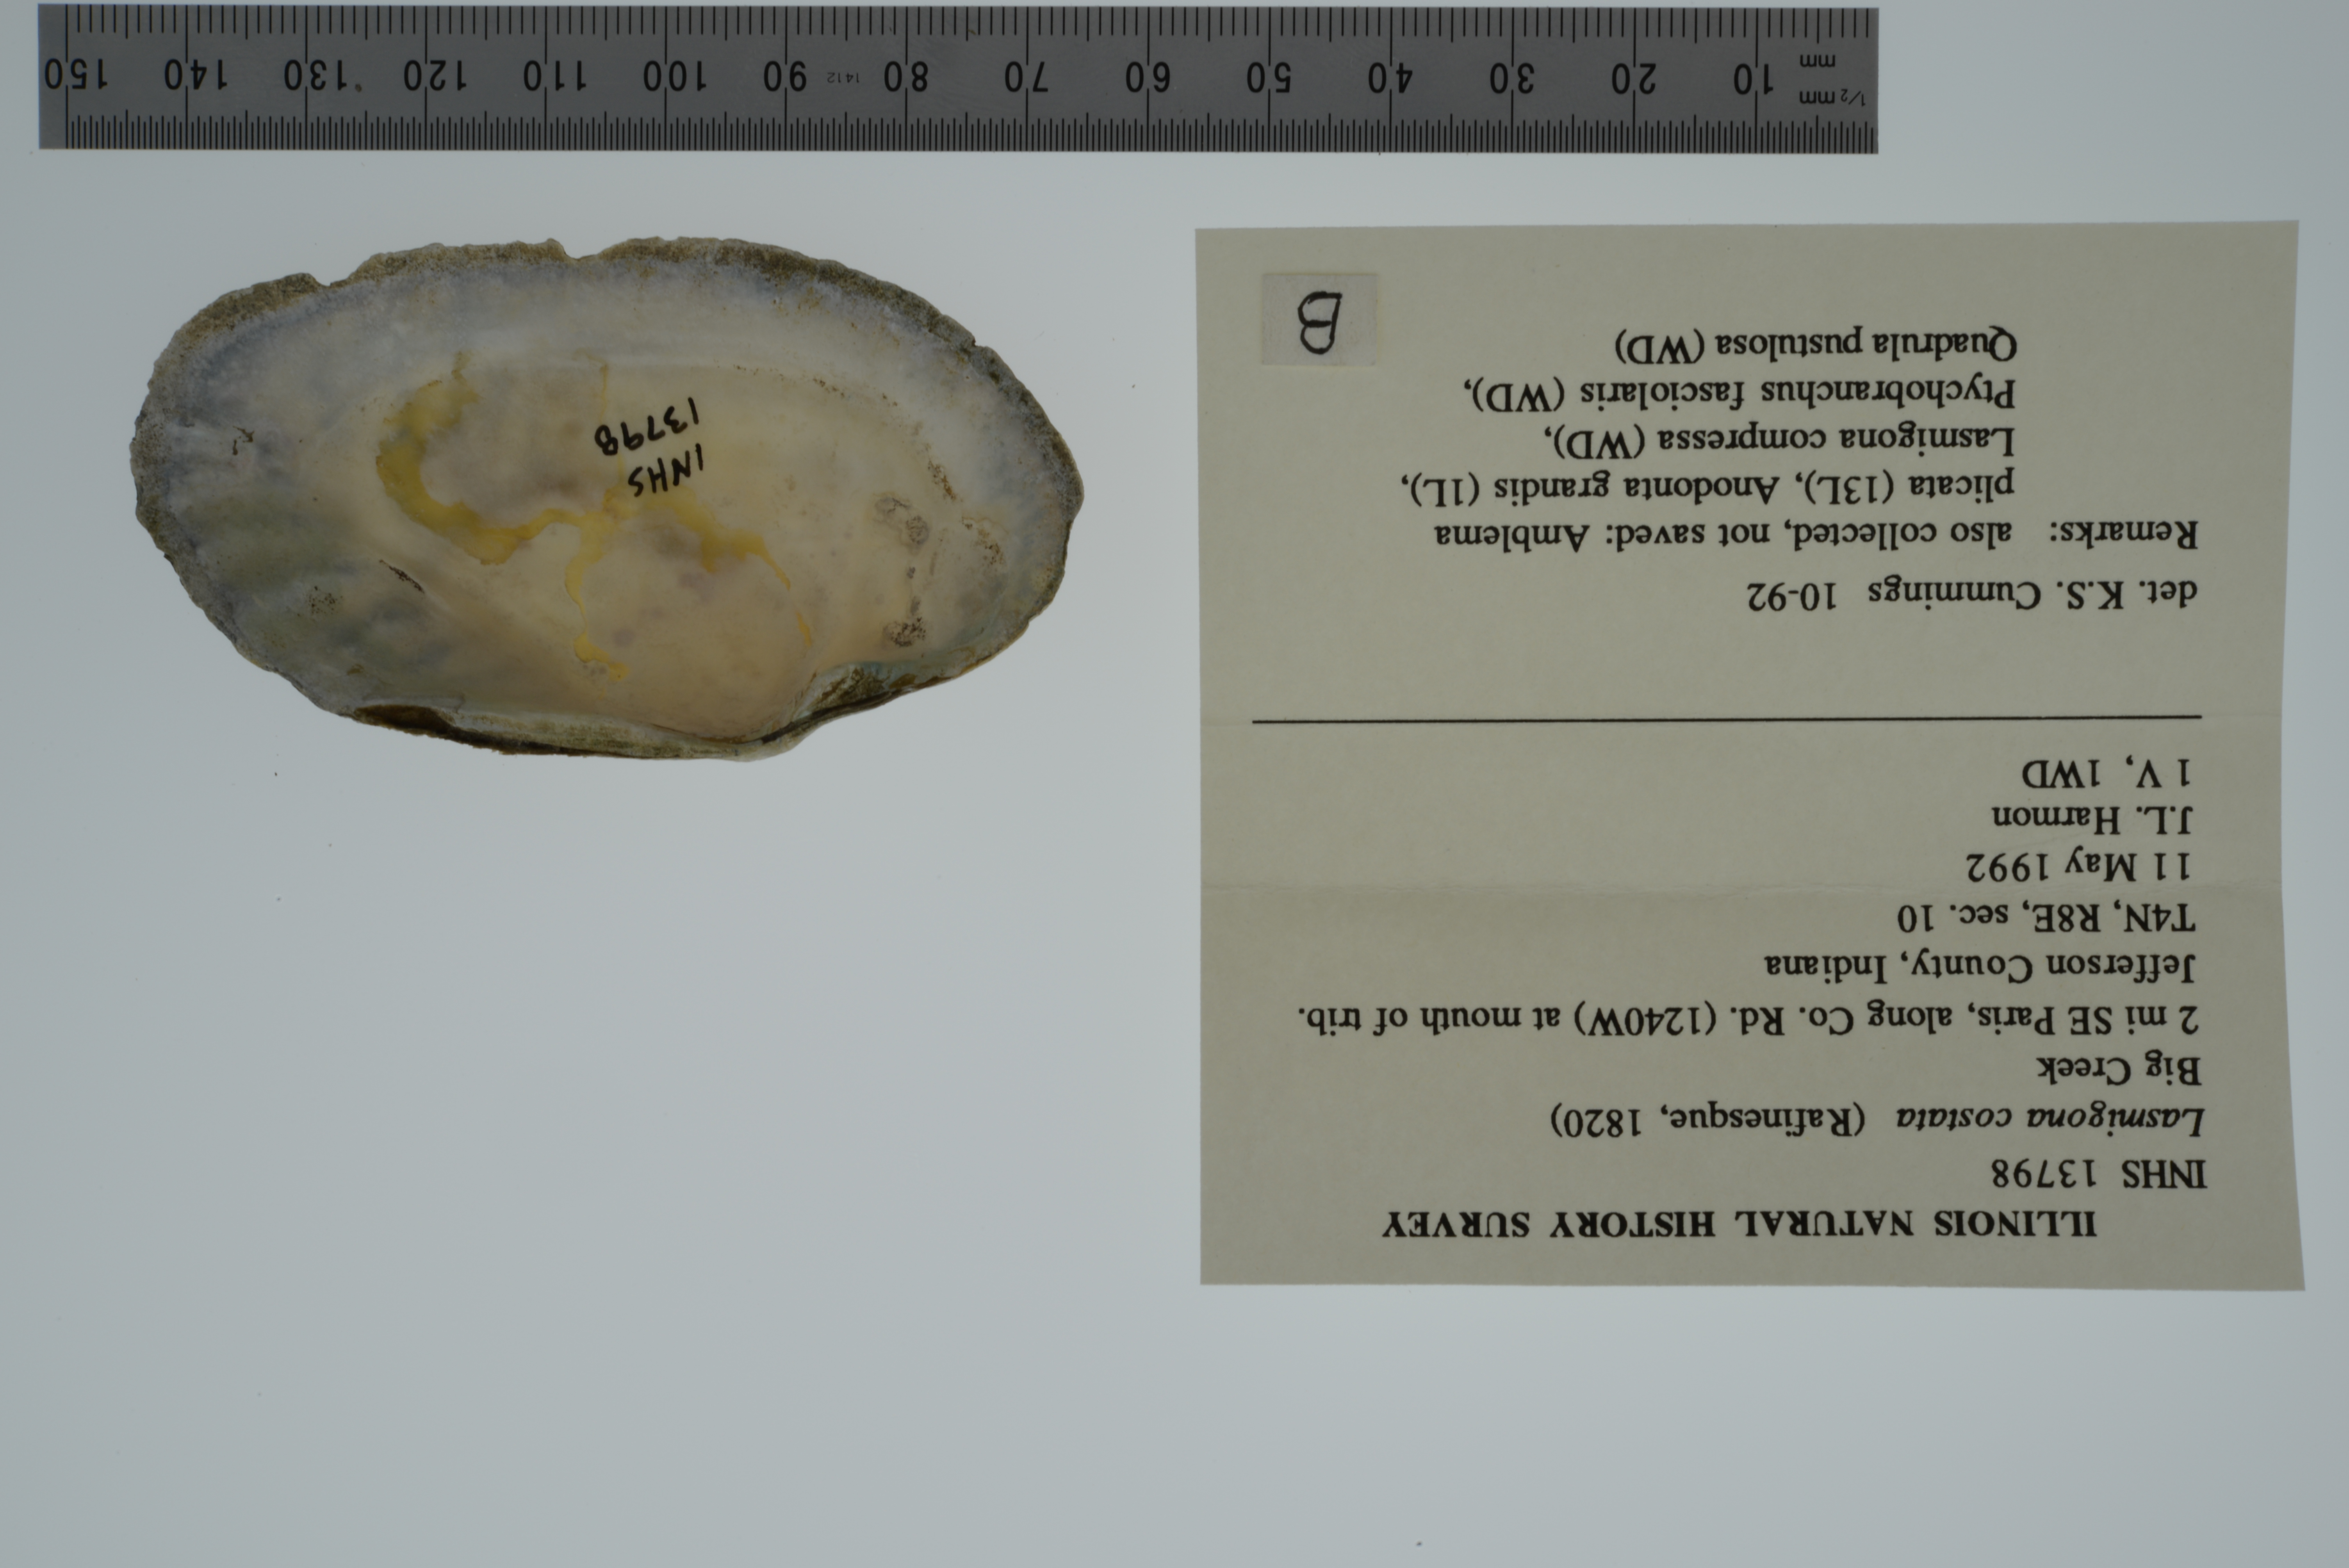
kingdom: Animalia
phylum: Mollusca
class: Bivalvia
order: Unionida
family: Unionidae
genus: Lasmigona
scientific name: Lasmigona costata
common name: Flutedshell
